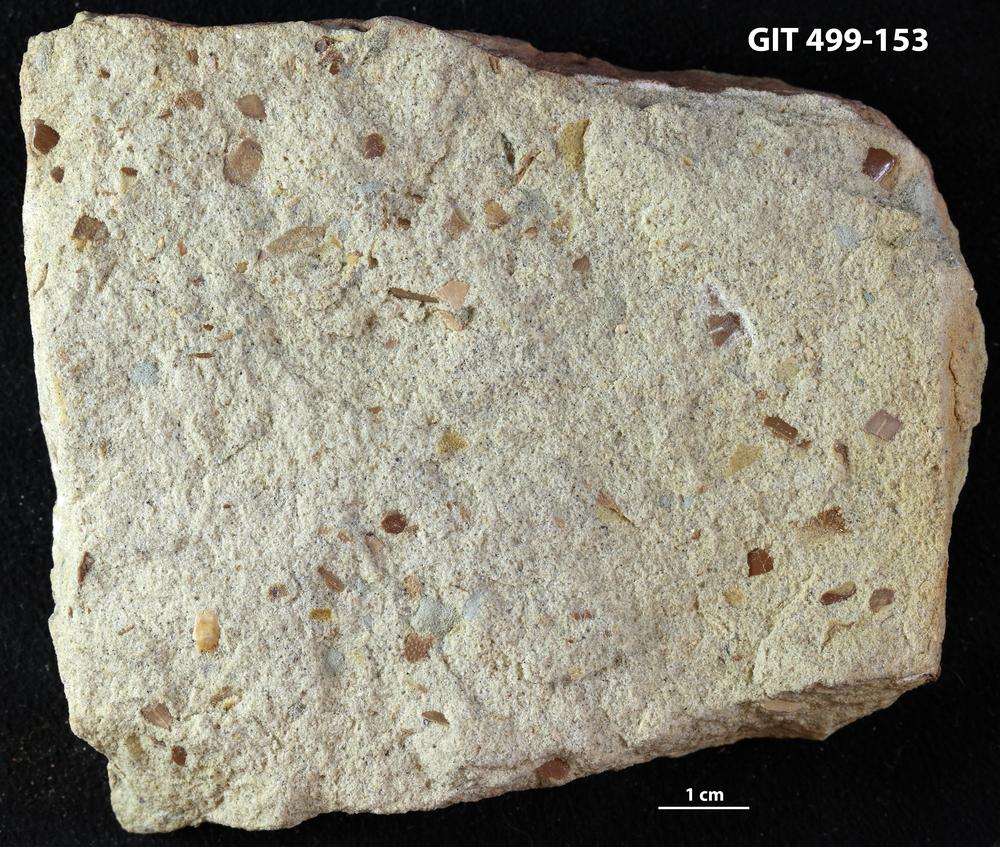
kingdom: Animalia
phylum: Chordata
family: Drepanaspididae
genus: Psammosteus
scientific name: Psammosteus
